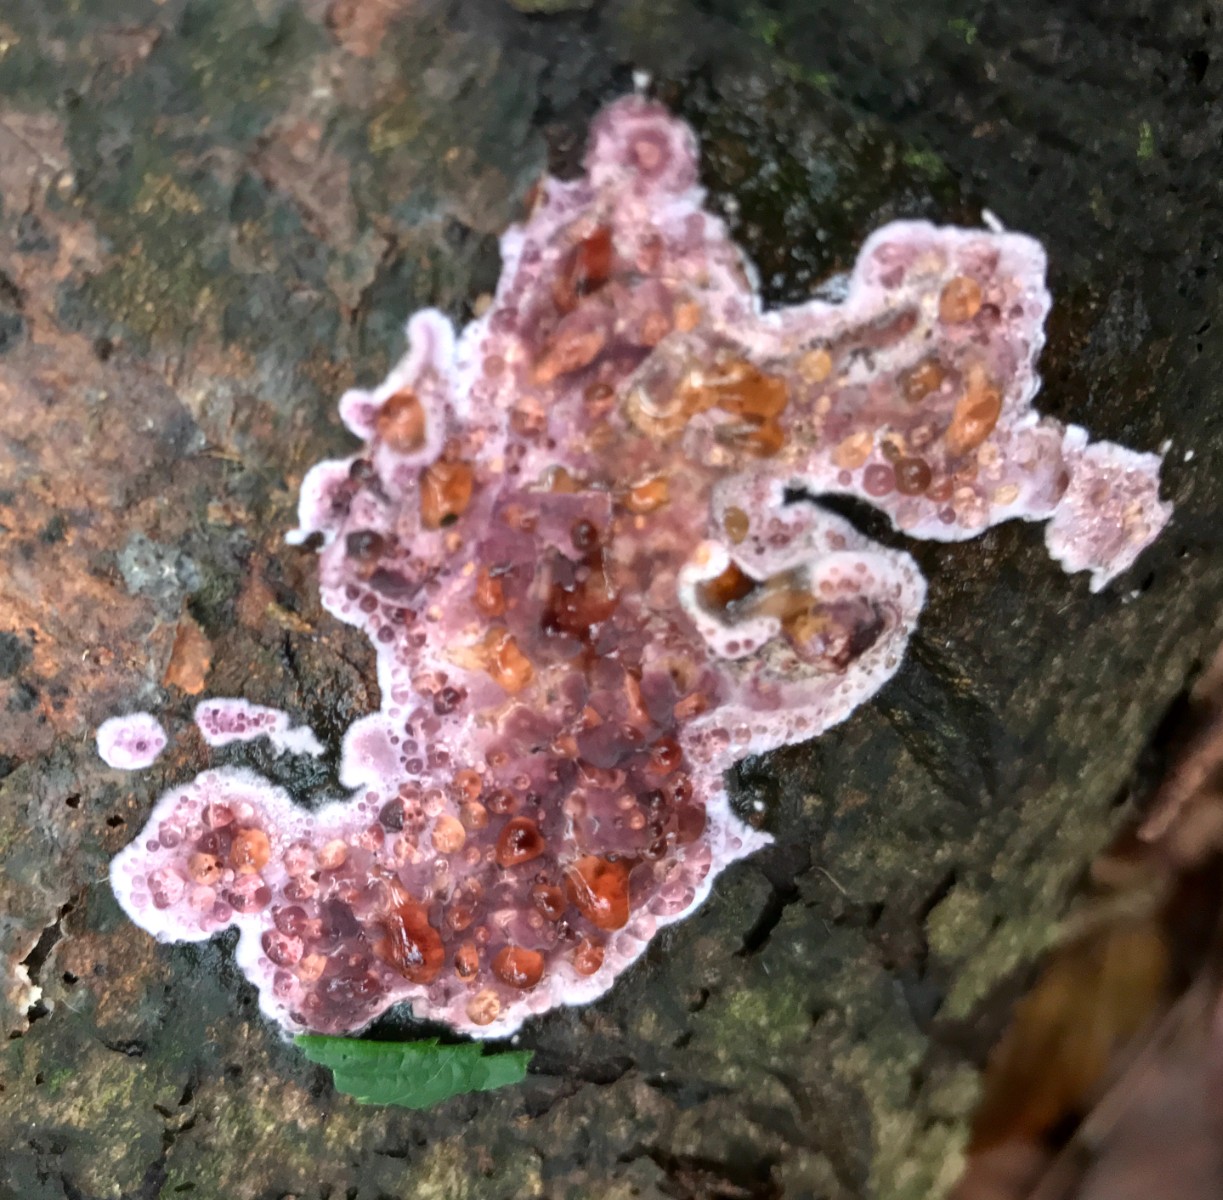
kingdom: Fungi
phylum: Basidiomycota
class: Agaricomycetes
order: Agaricales
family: Cyphellaceae
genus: Chondrostereum
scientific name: Chondrostereum purpureum
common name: purpurlædersvamp
